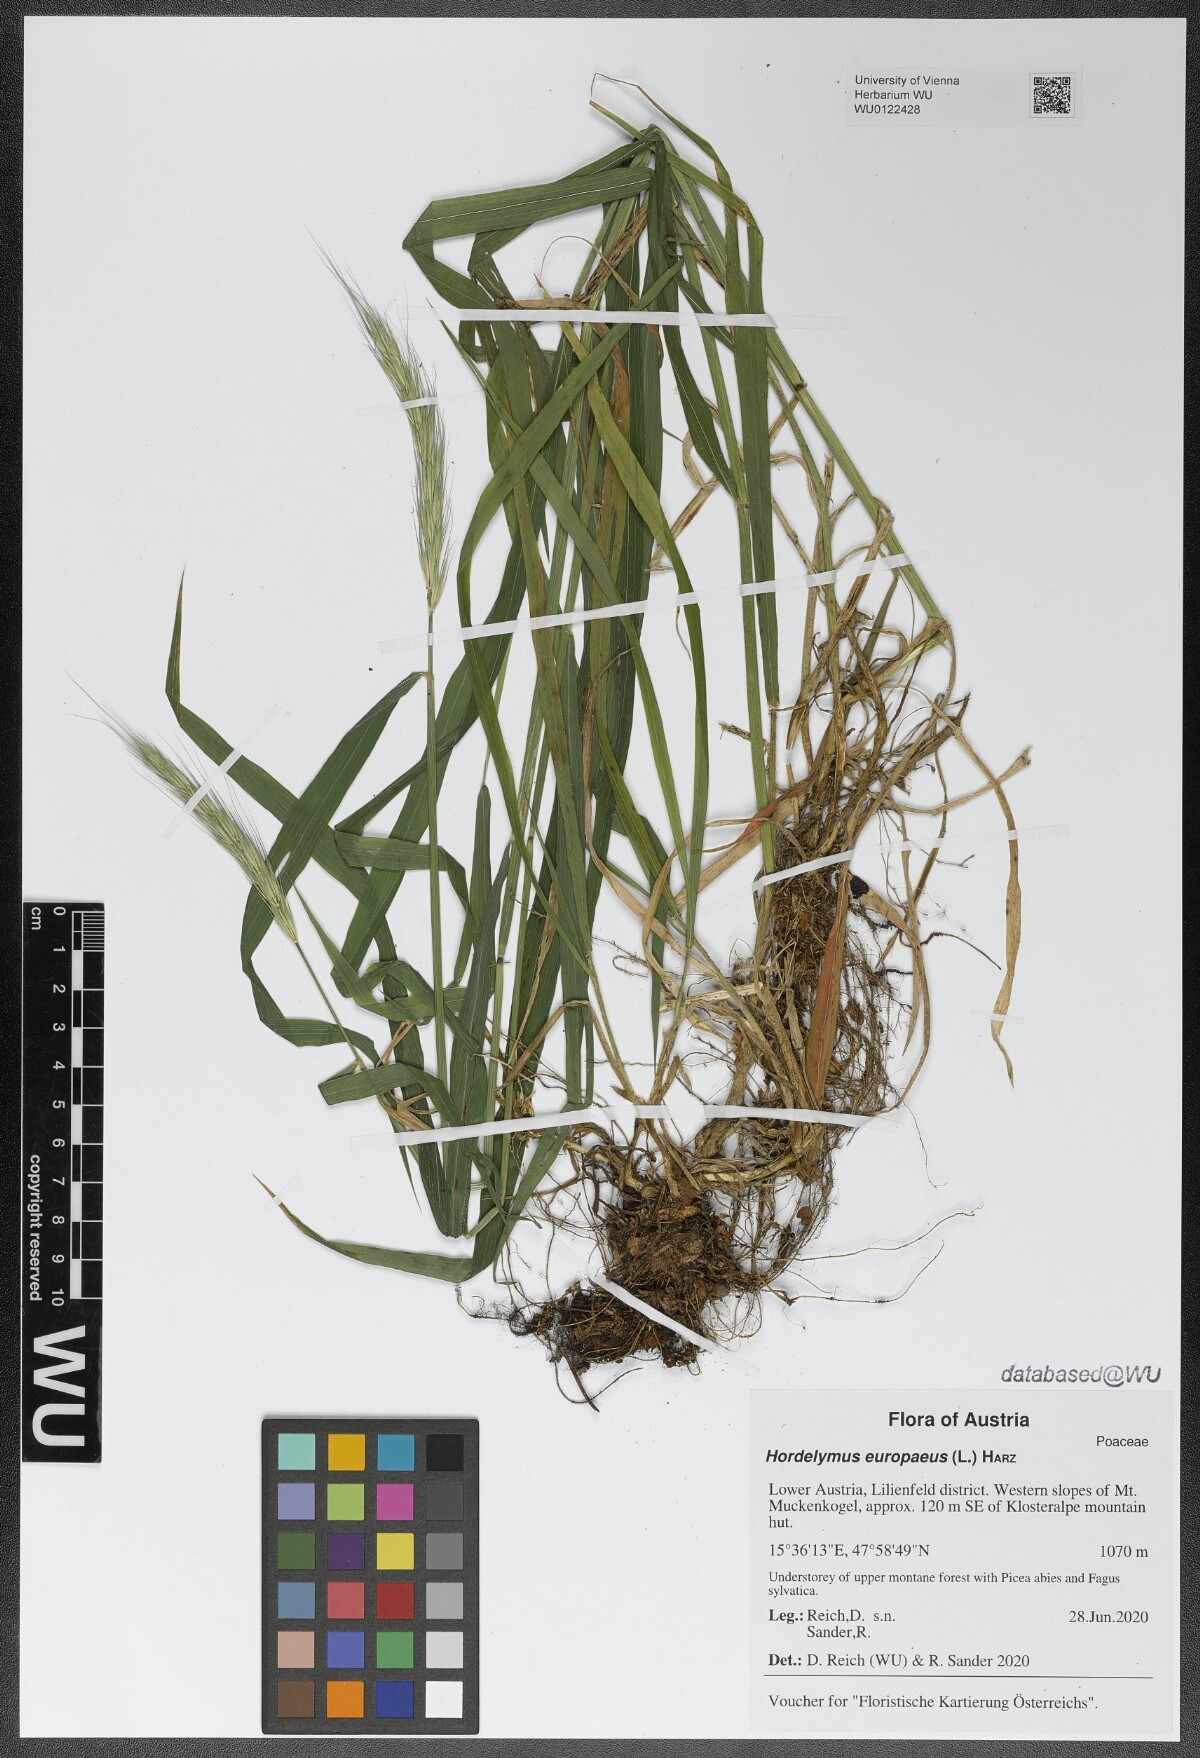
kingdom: Plantae
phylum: Tracheophyta
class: Liliopsida
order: Poales
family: Poaceae
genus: Hordelymus
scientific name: Hordelymus europaeus
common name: Wood-barley
